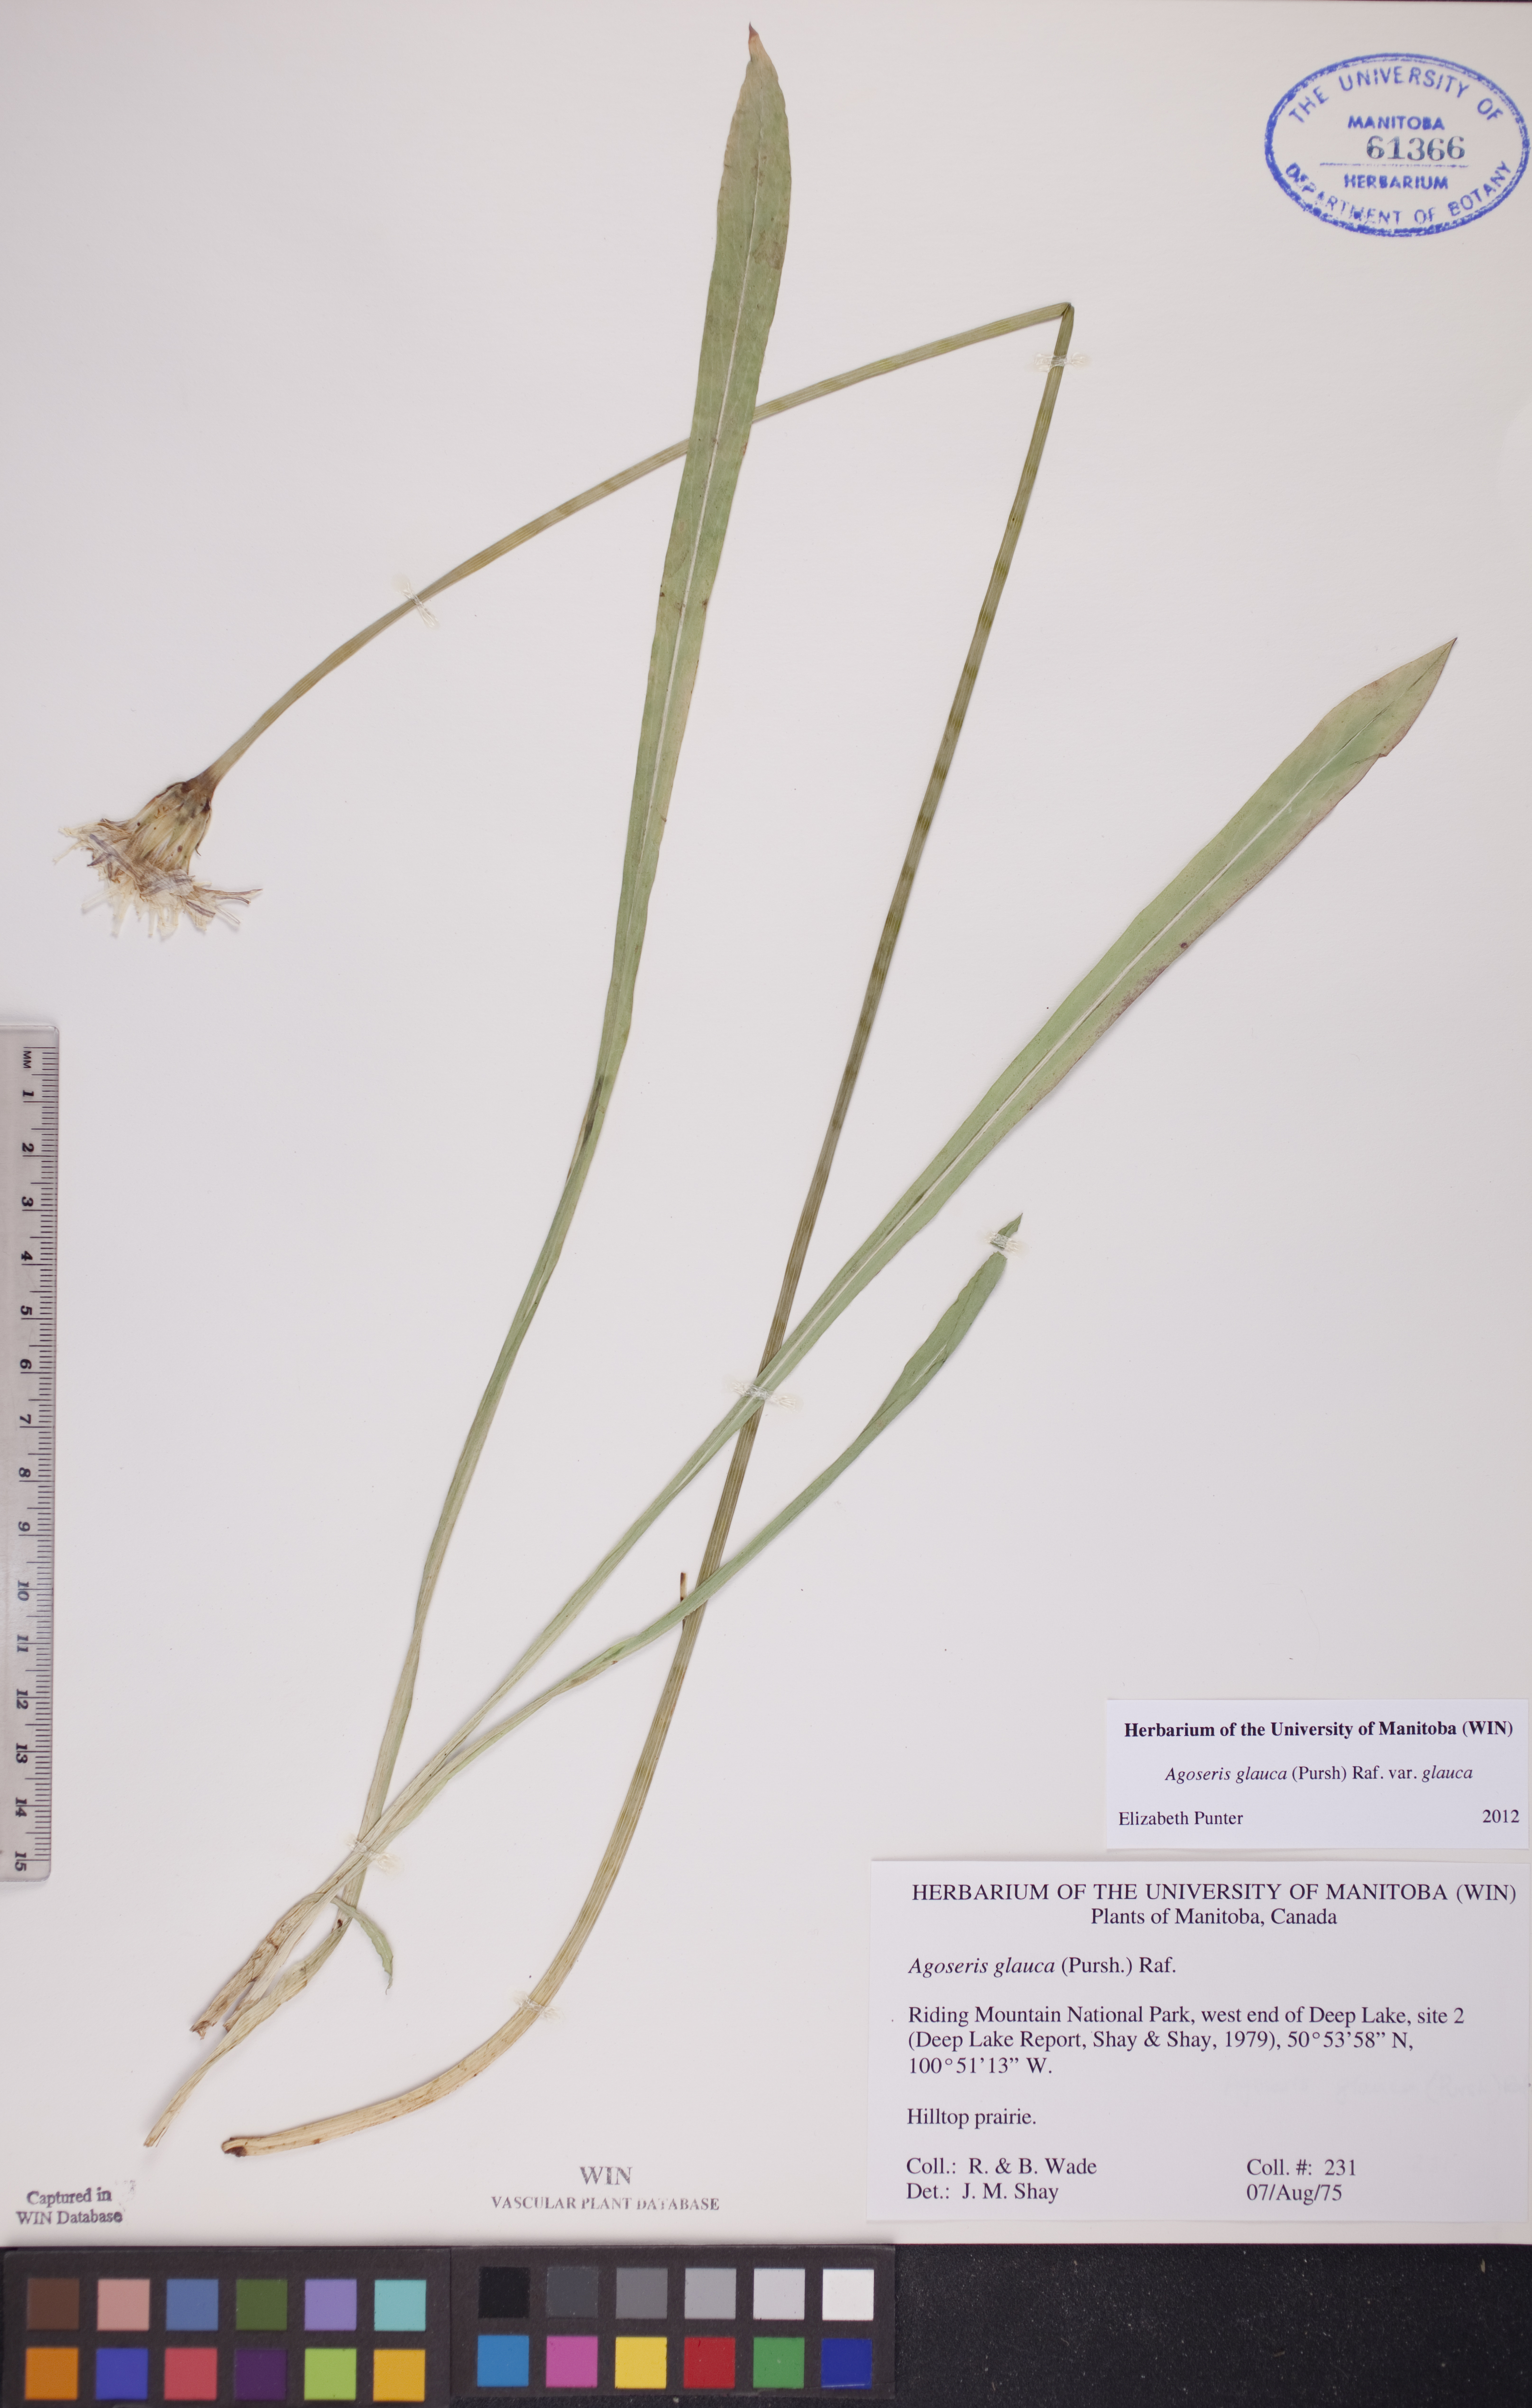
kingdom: Plantae
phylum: Tracheophyta
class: Magnoliopsida
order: Asterales
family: Asteraceae
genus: Agoseris
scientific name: Agoseris glauca
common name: Prairie agoseris
